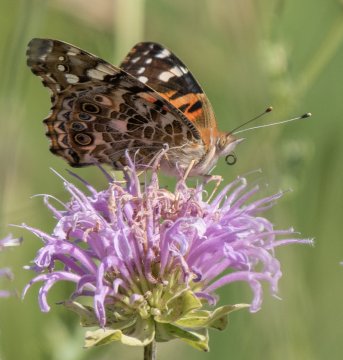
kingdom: Animalia
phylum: Arthropoda
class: Insecta
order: Lepidoptera
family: Nymphalidae
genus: Vanessa
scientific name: Vanessa cardui
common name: Painted Lady
